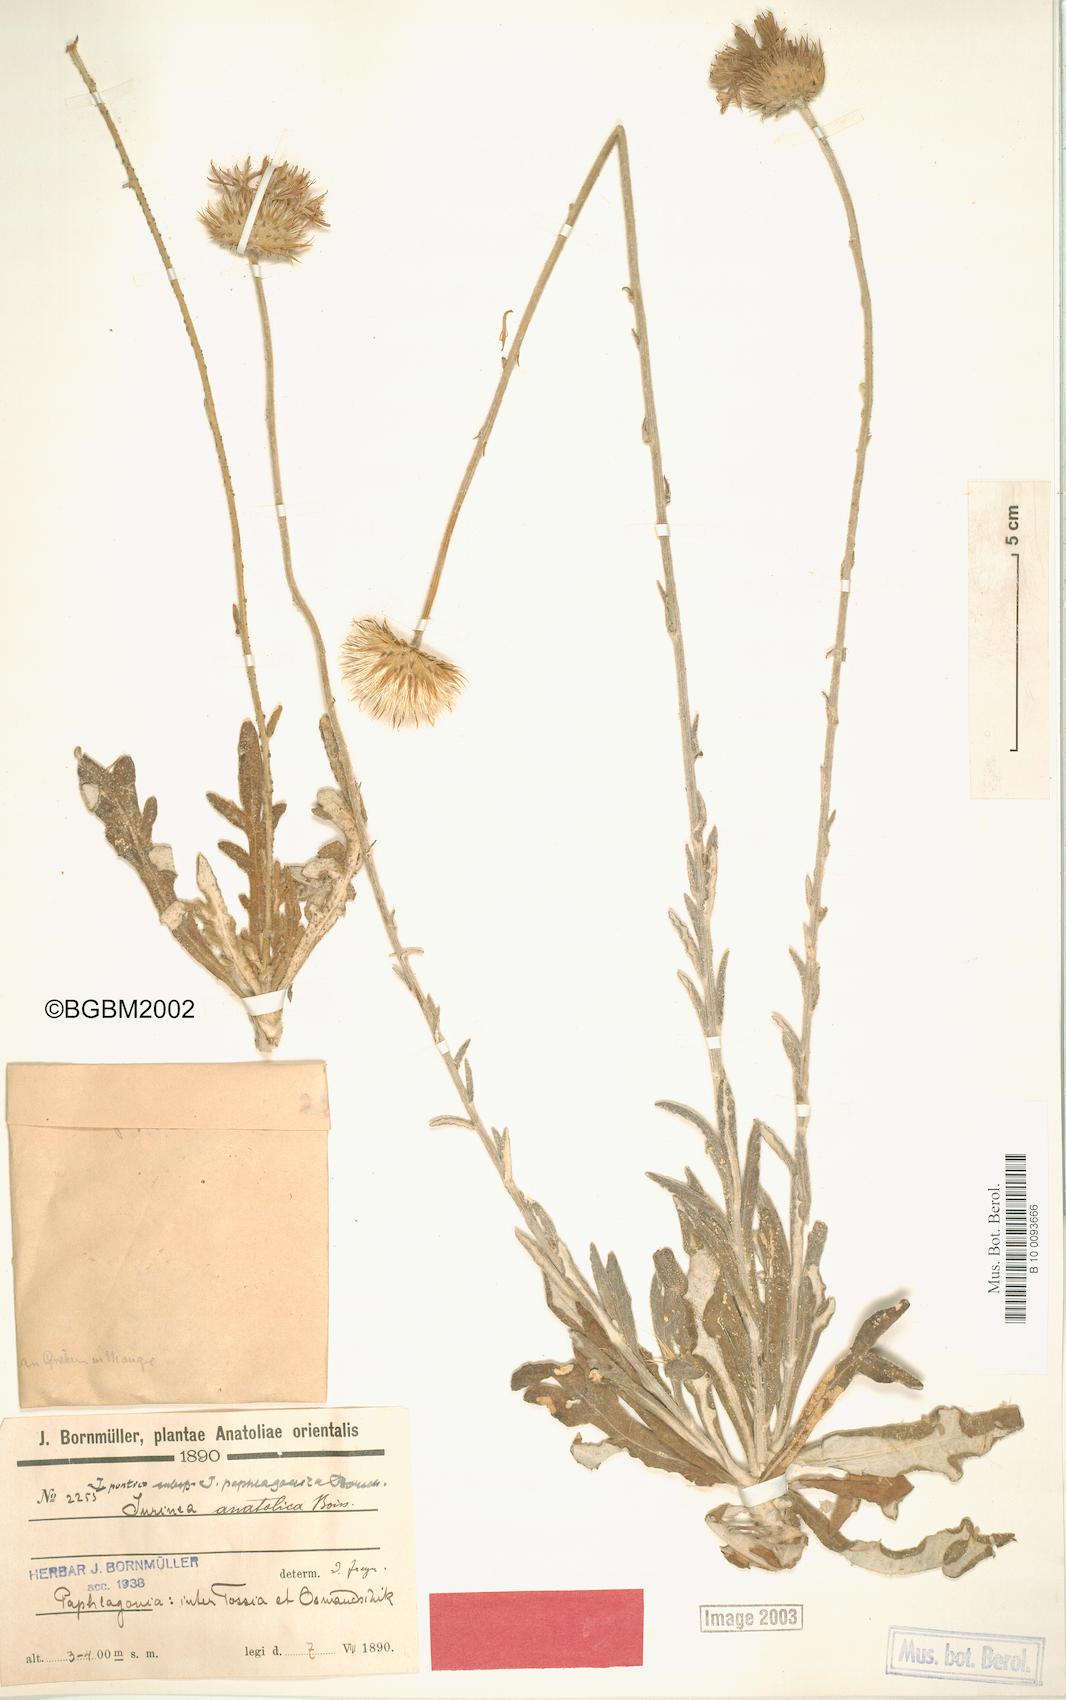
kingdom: Plantae
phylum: Tracheophyta
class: Magnoliopsida
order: Asterales
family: Asteraceae
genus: Jurinea
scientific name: Jurinea pontica
